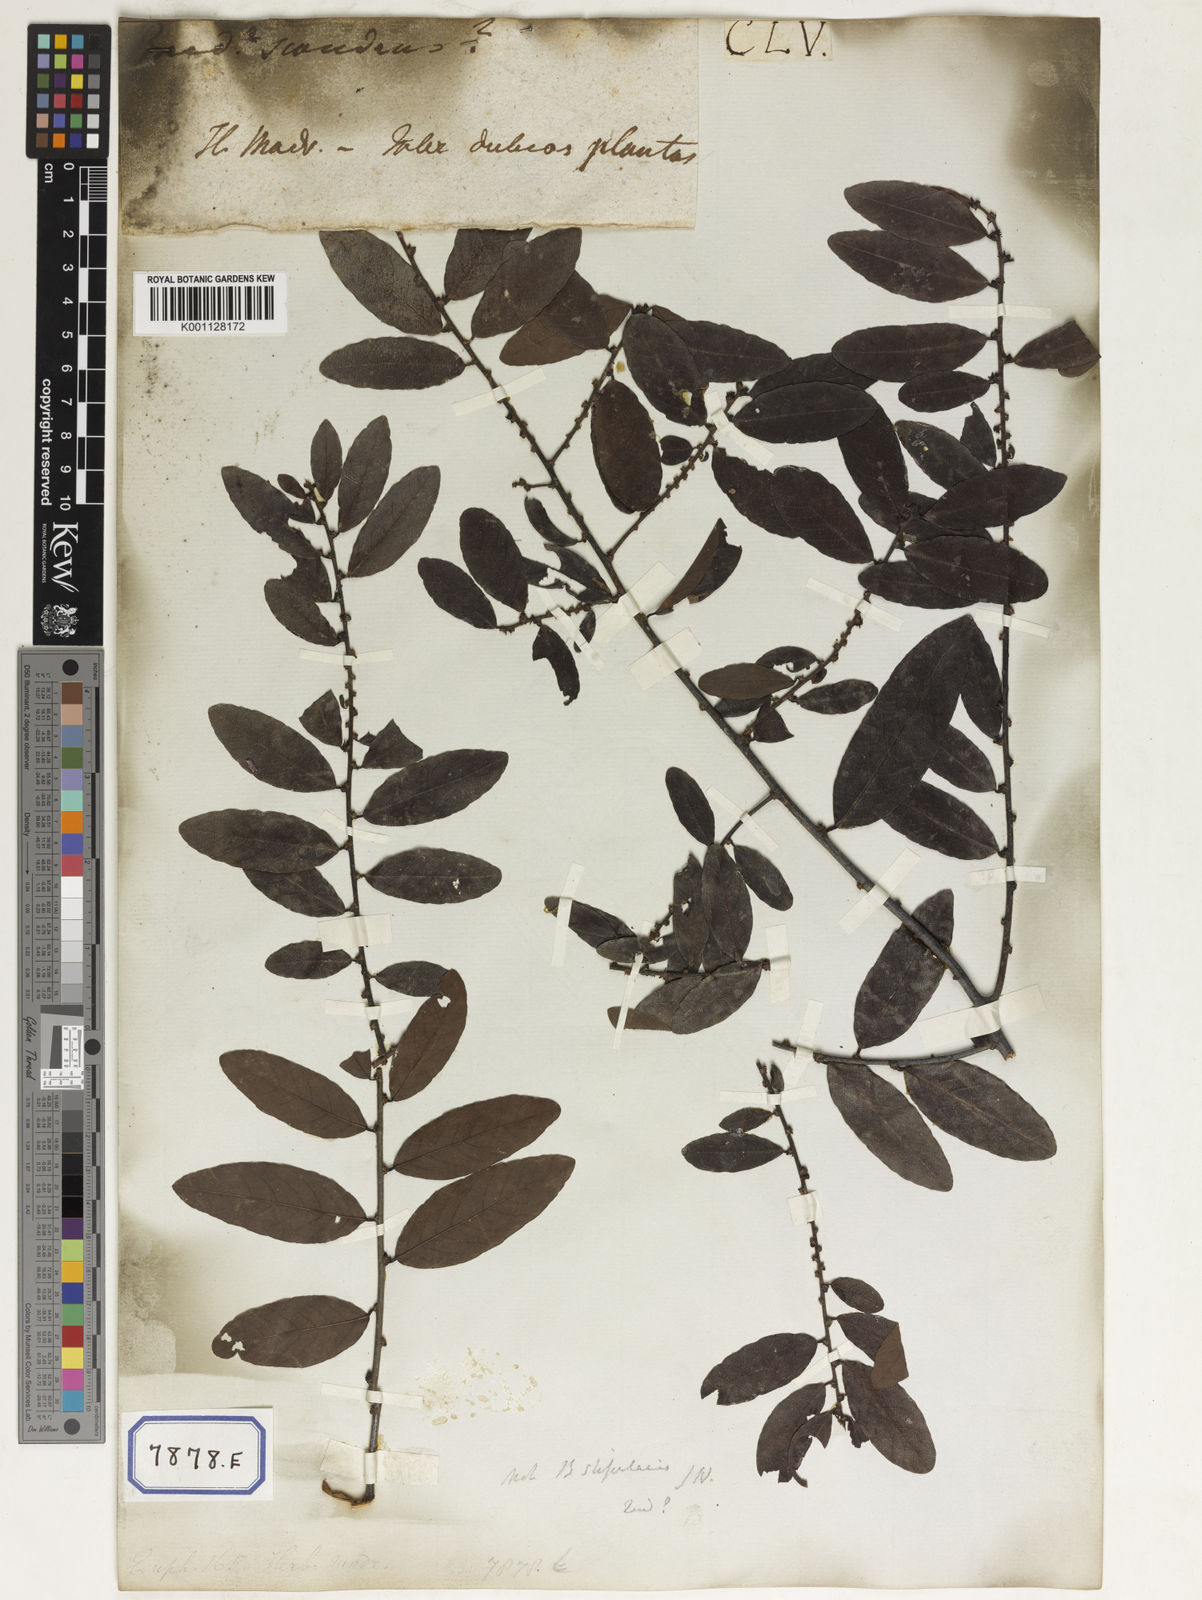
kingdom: Plantae
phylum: Tracheophyta
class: Magnoliopsida
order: Malpighiales
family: Phyllanthaceae
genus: Bridelia
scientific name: Bridelia
